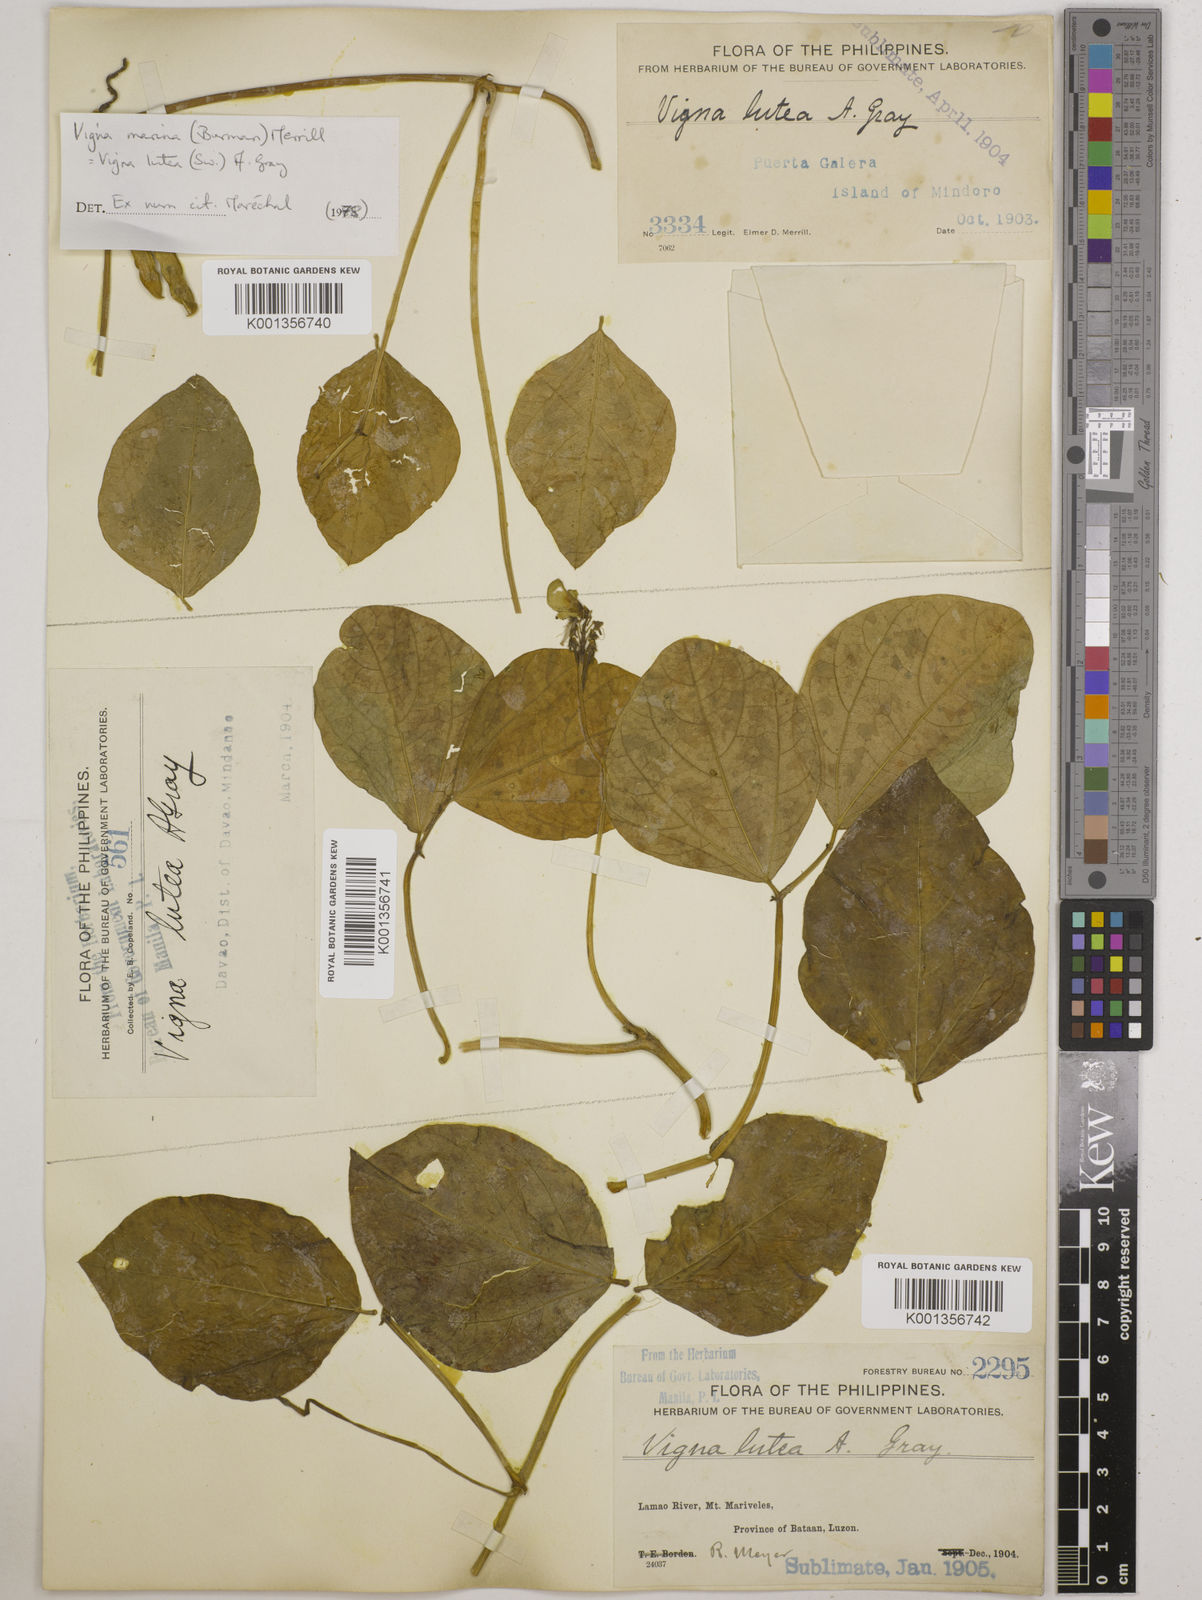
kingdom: Plantae
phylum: Tracheophyta
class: Magnoliopsida
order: Fabales
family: Fabaceae
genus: Vigna
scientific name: Vigna marina
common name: Dune-bean
